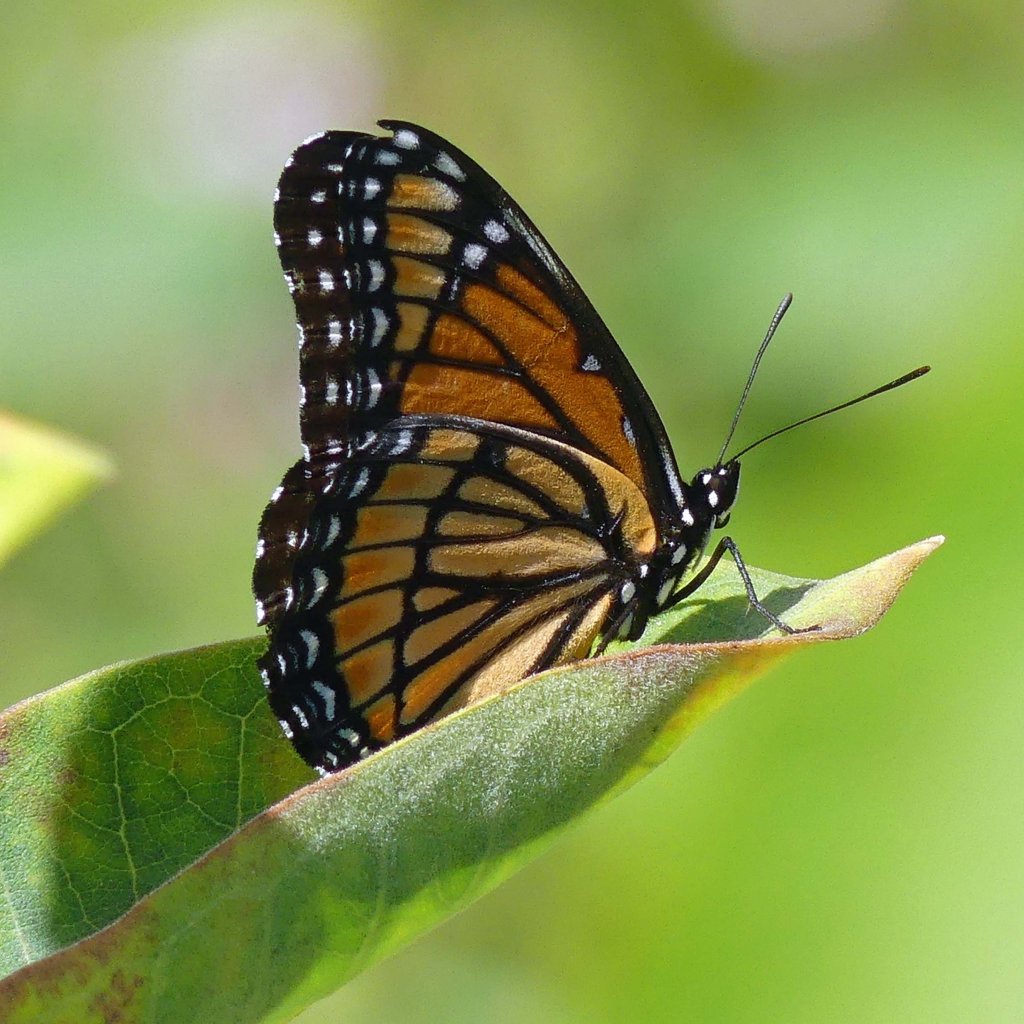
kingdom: Animalia
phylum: Arthropoda
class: Insecta
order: Lepidoptera
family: Nymphalidae
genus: Limenitis
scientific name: Limenitis archippus
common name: Viceroy
